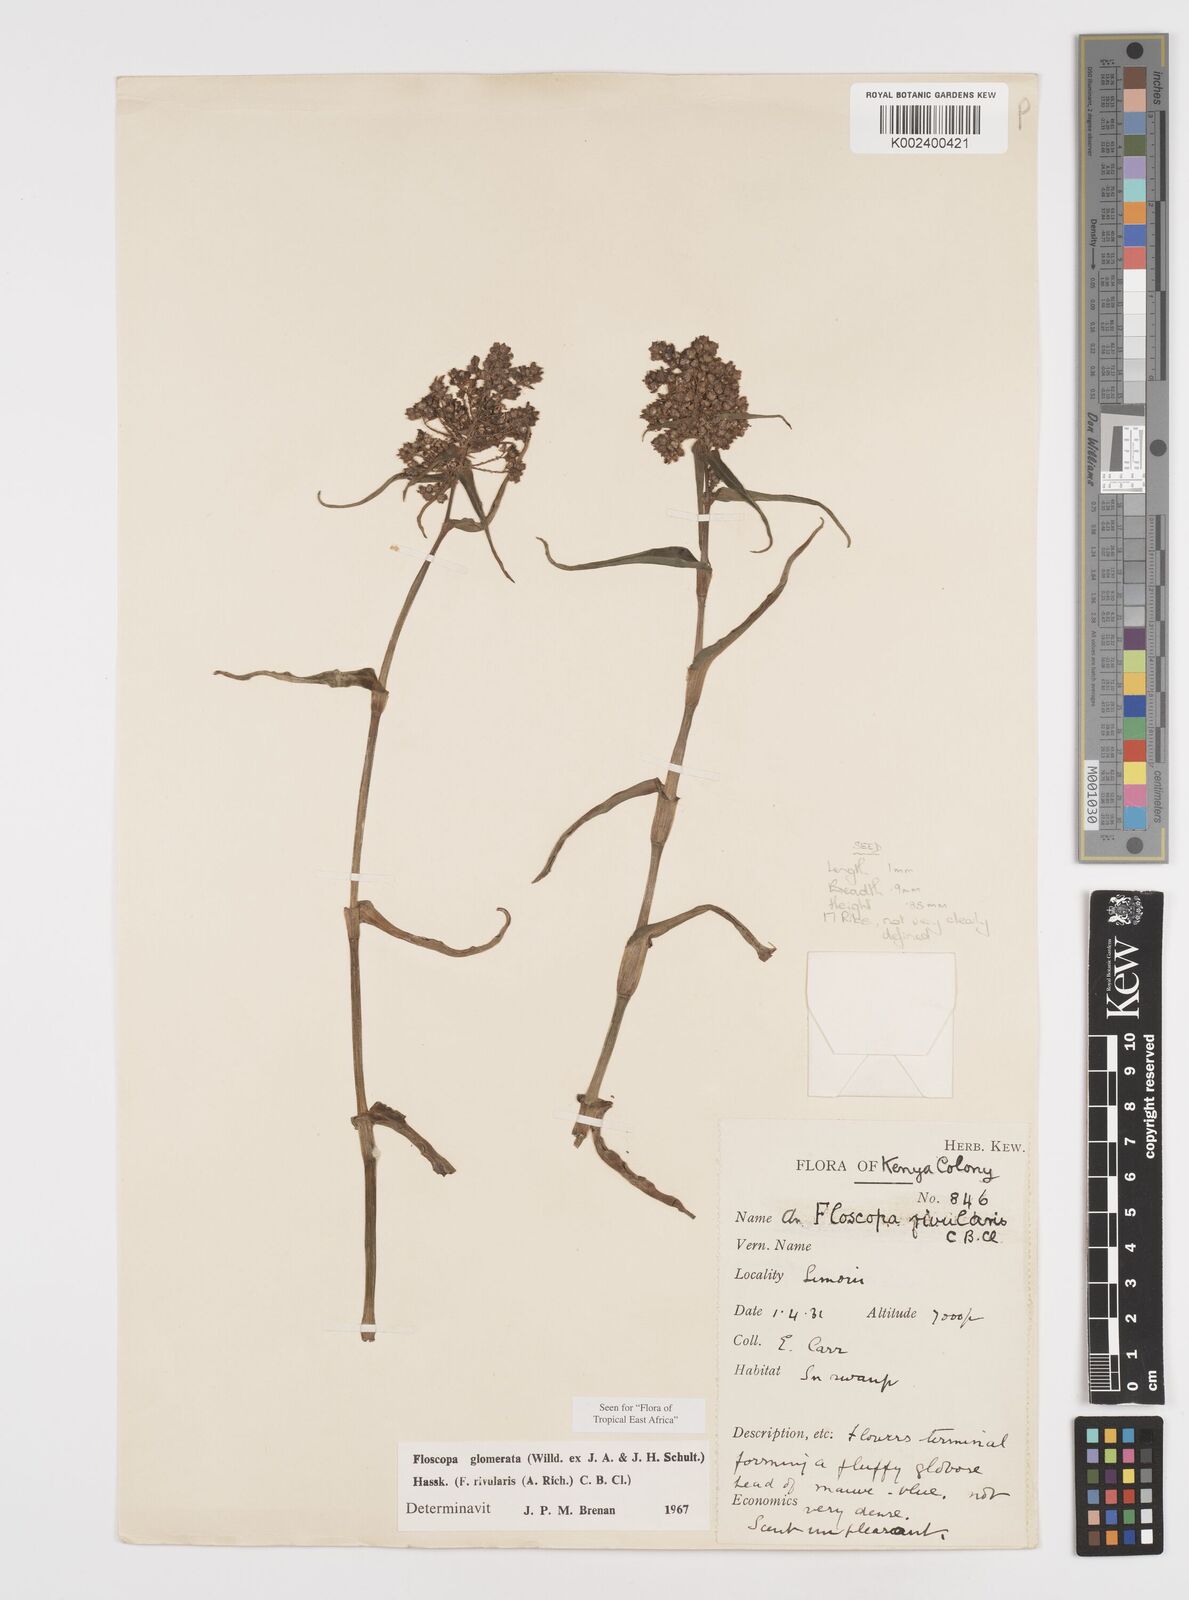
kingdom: Plantae
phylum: Tracheophyta
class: Liliopsida
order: Commelinales
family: Commelinaceae
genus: Floscopa
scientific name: Floscopa glomerata
